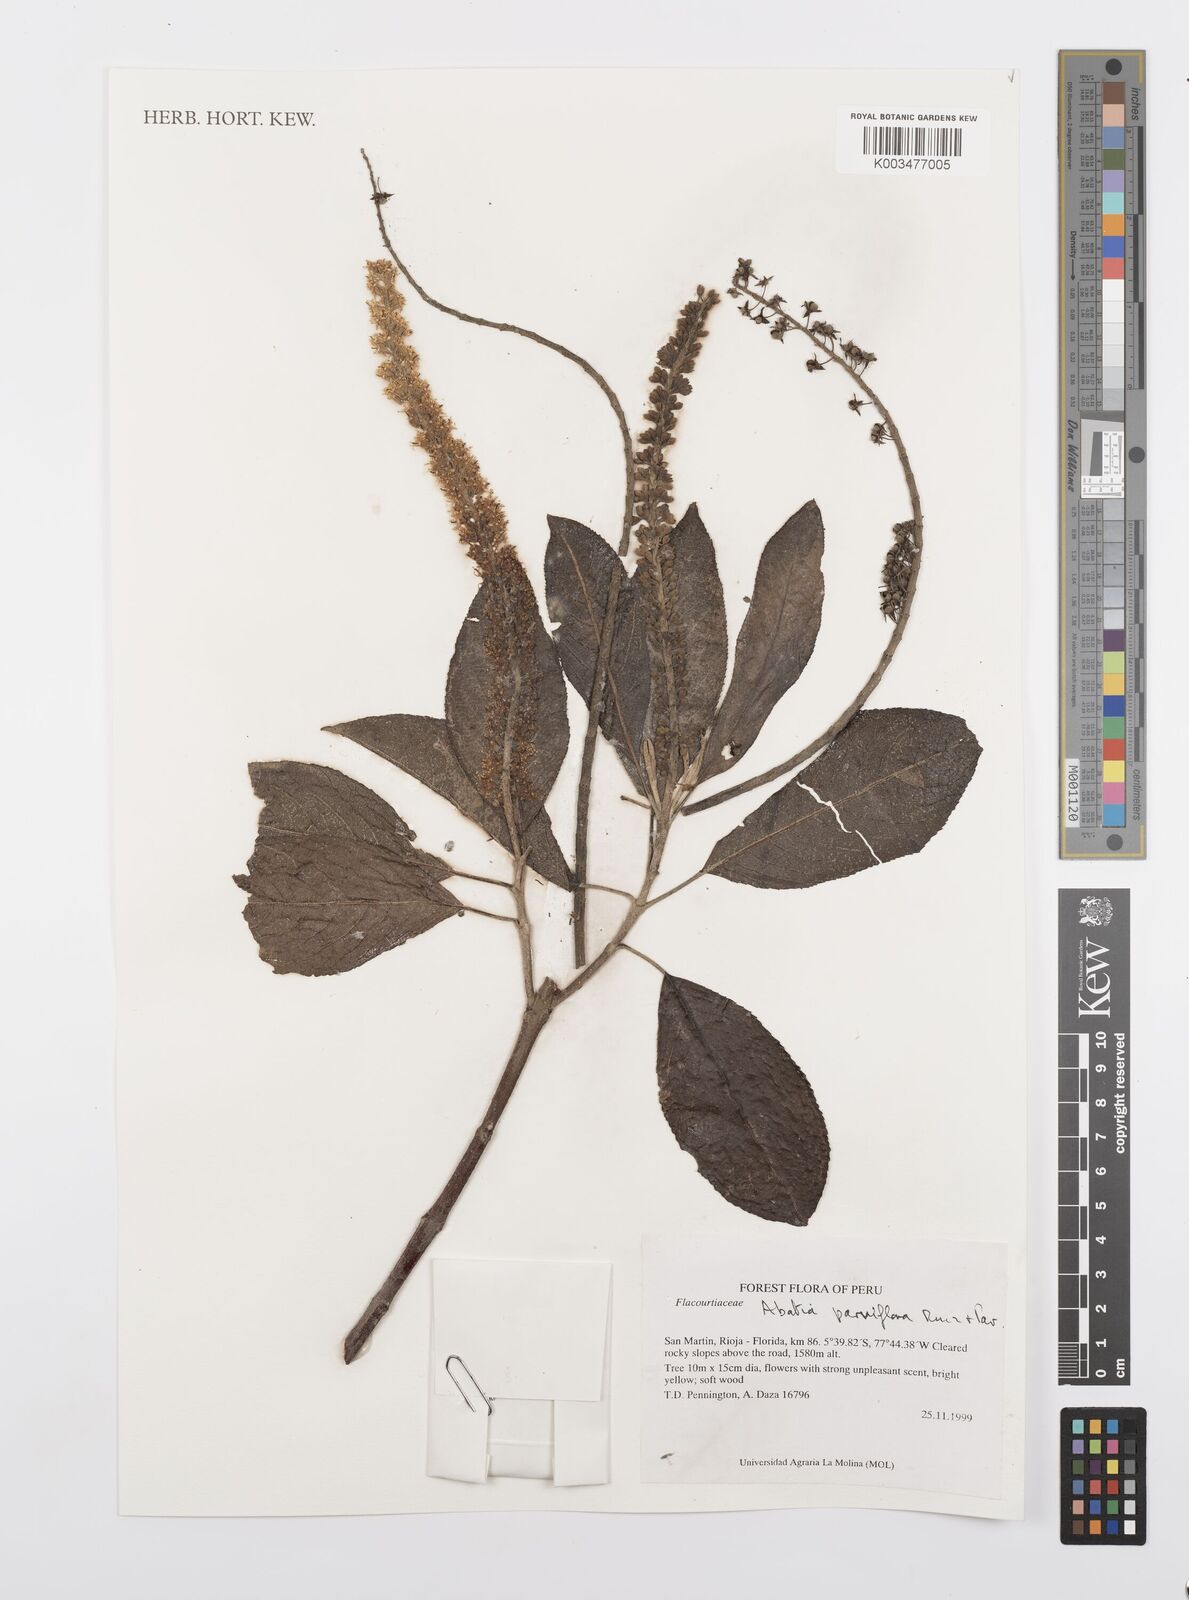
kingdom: Plantae
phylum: Tracheophyta
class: Magnoliopsida
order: Malpighiales
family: Salicaceae
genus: Abatia
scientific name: Abatia parviflora
